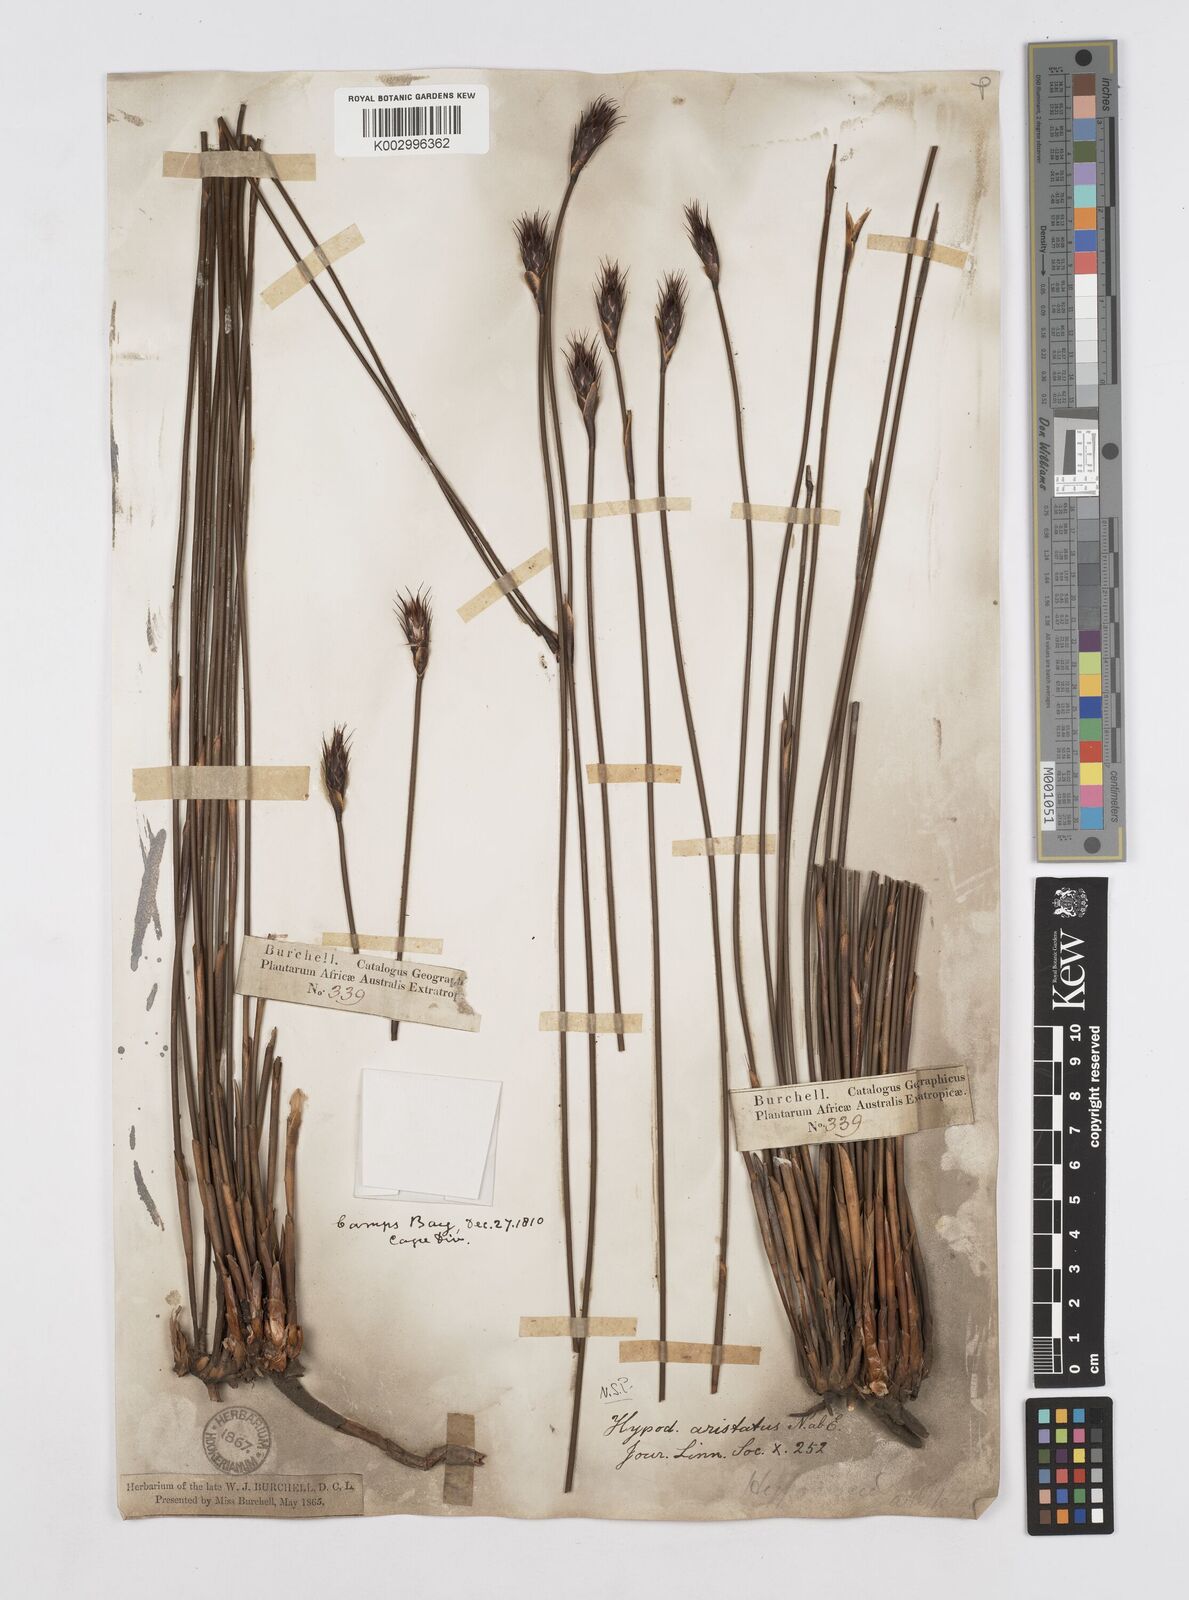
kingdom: Plantae
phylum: Tracheophyta
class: Liliopsida
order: Poales
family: Restionaceae
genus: Hypodiscus
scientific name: Hypodiscus aristatus
